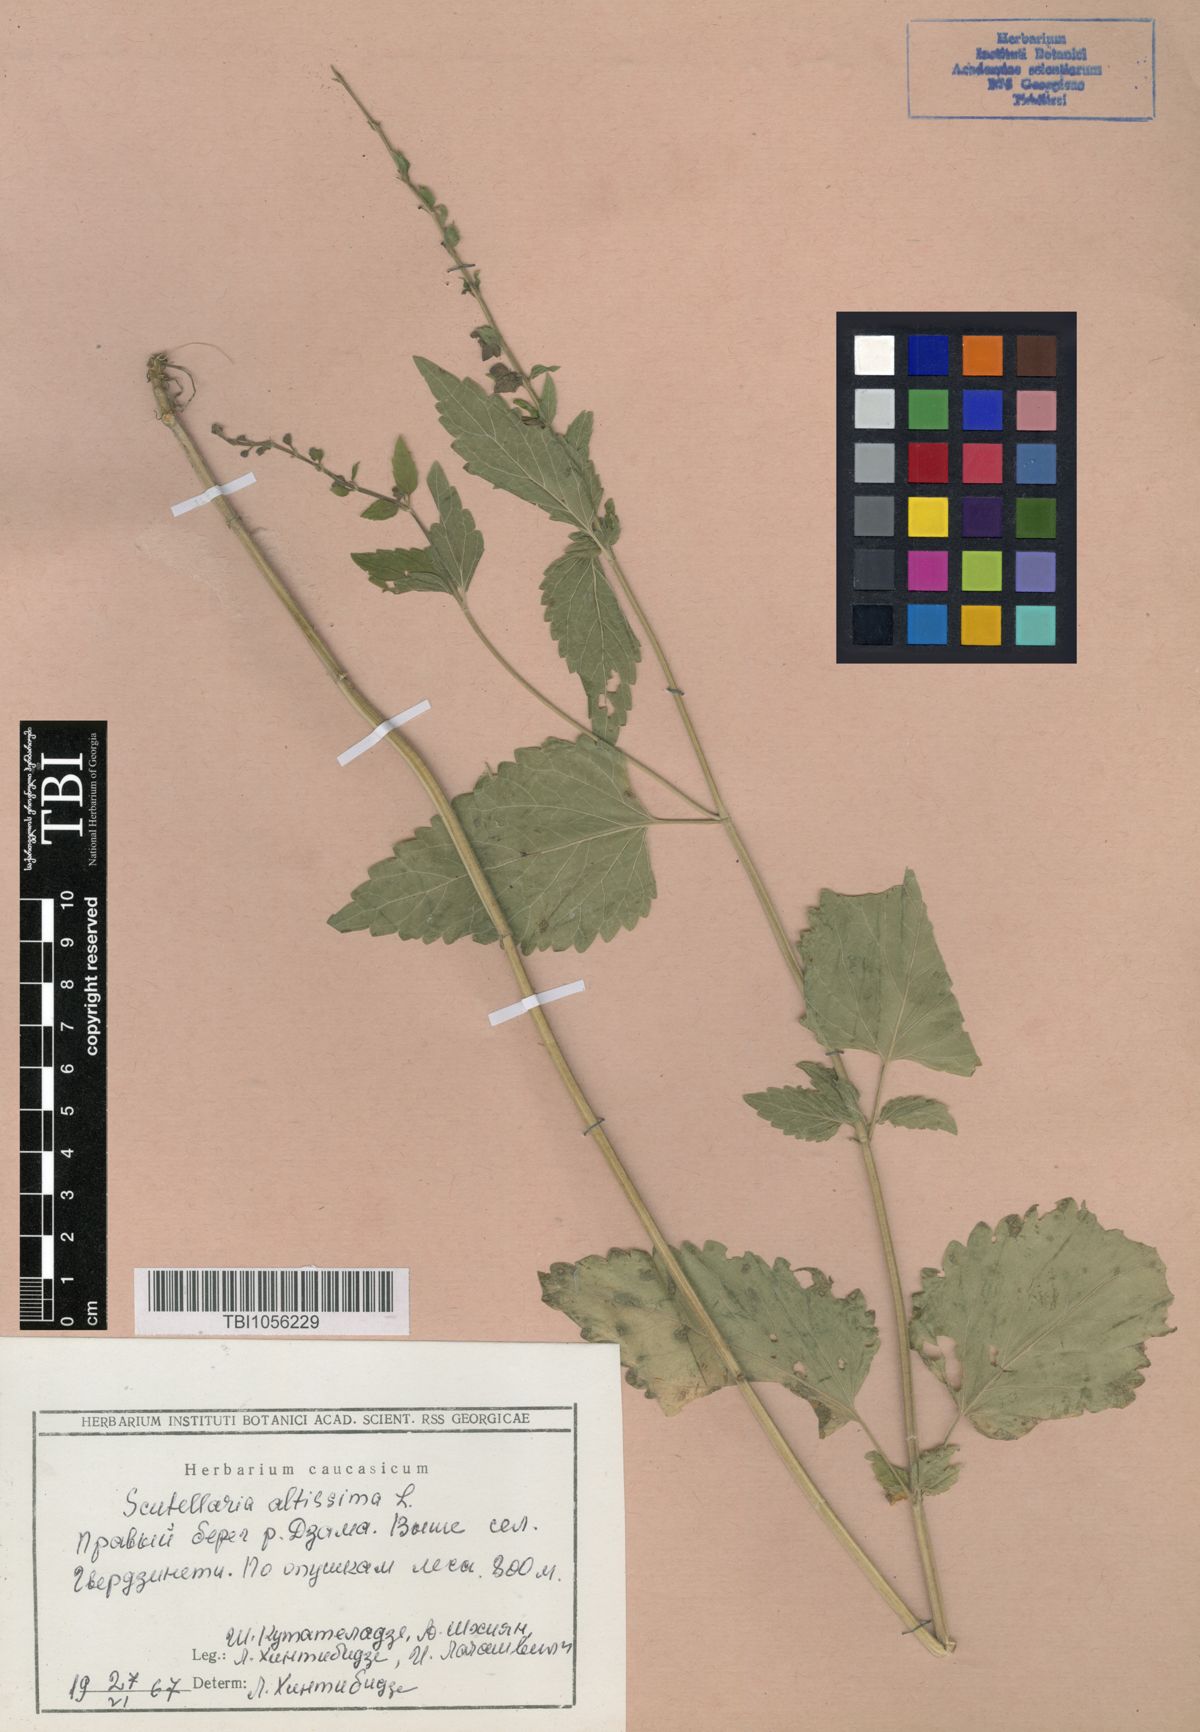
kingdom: Plantae
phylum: Tracheophyta
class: Magnoliopsida
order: Lamiales
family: Lamiaceae
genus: Scutellaria
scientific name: Scutellaria altissima
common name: Somerset skullcap
